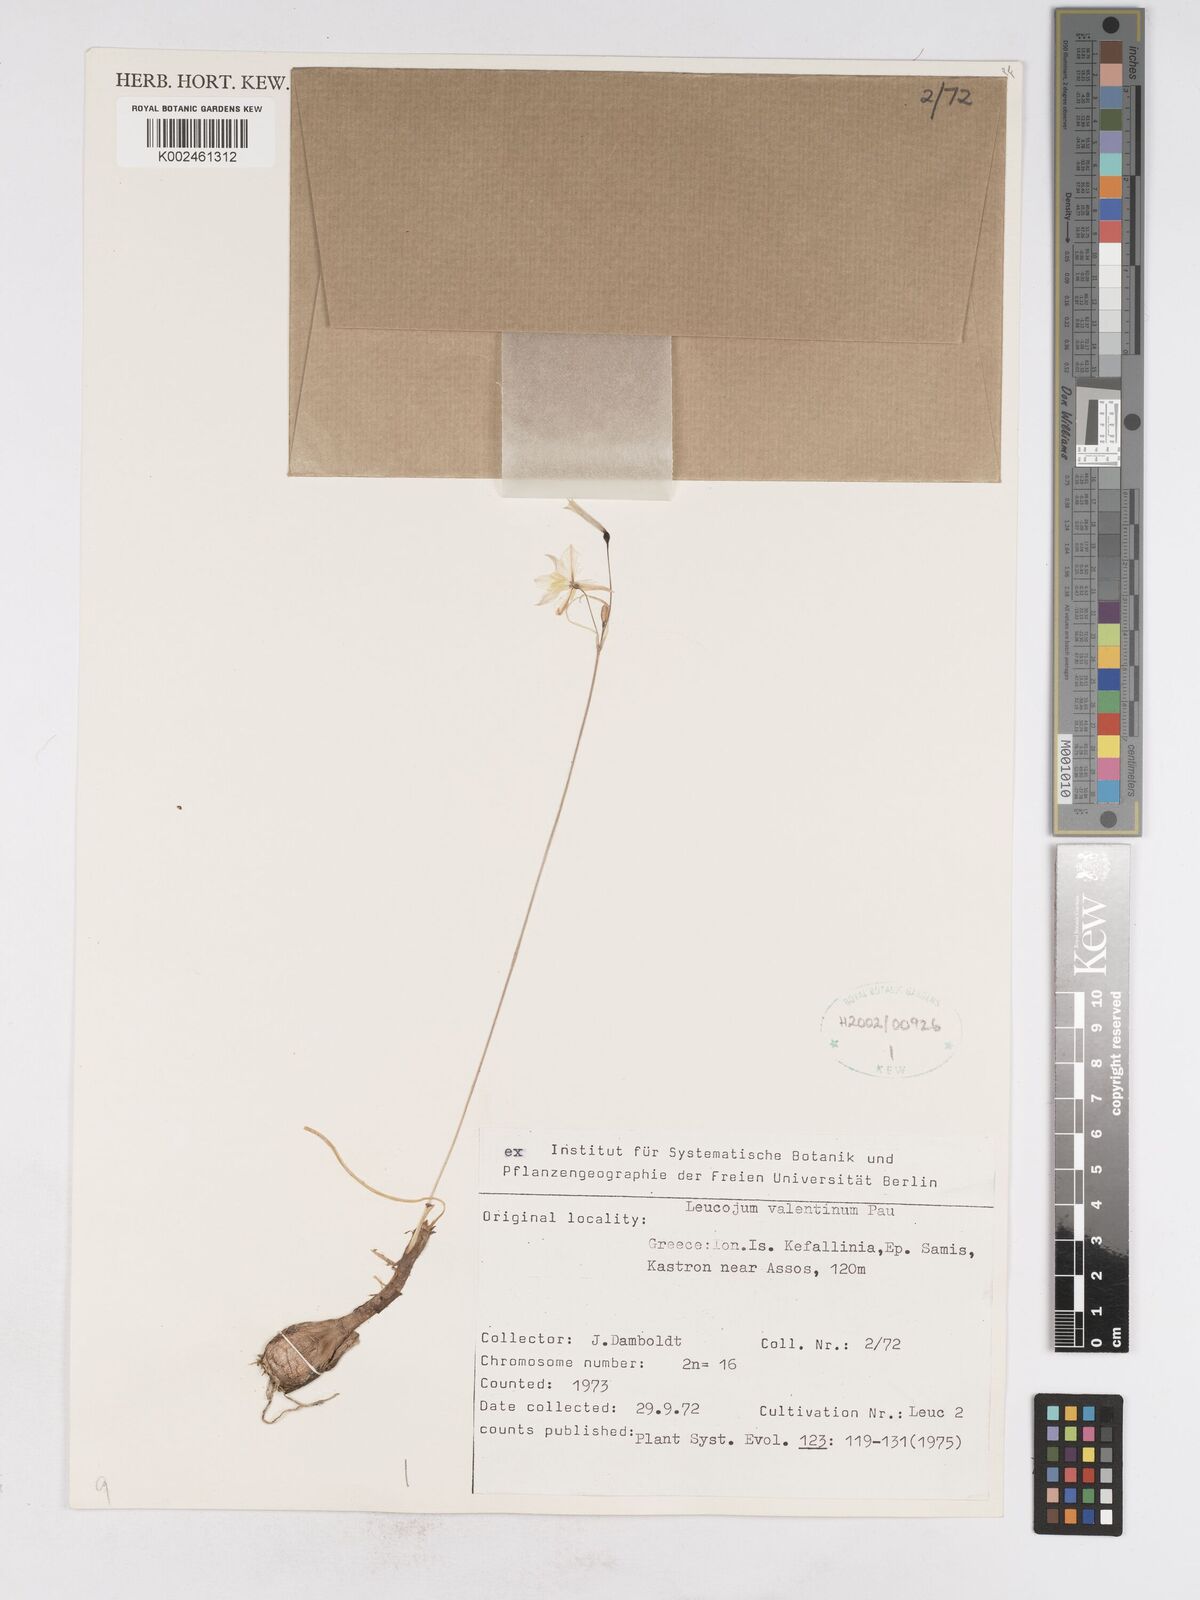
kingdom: Plantae
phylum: Tracheophyta
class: Liliopsida
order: Asparagales
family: Amaryllidaceae
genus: Acis
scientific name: Acis valentina
